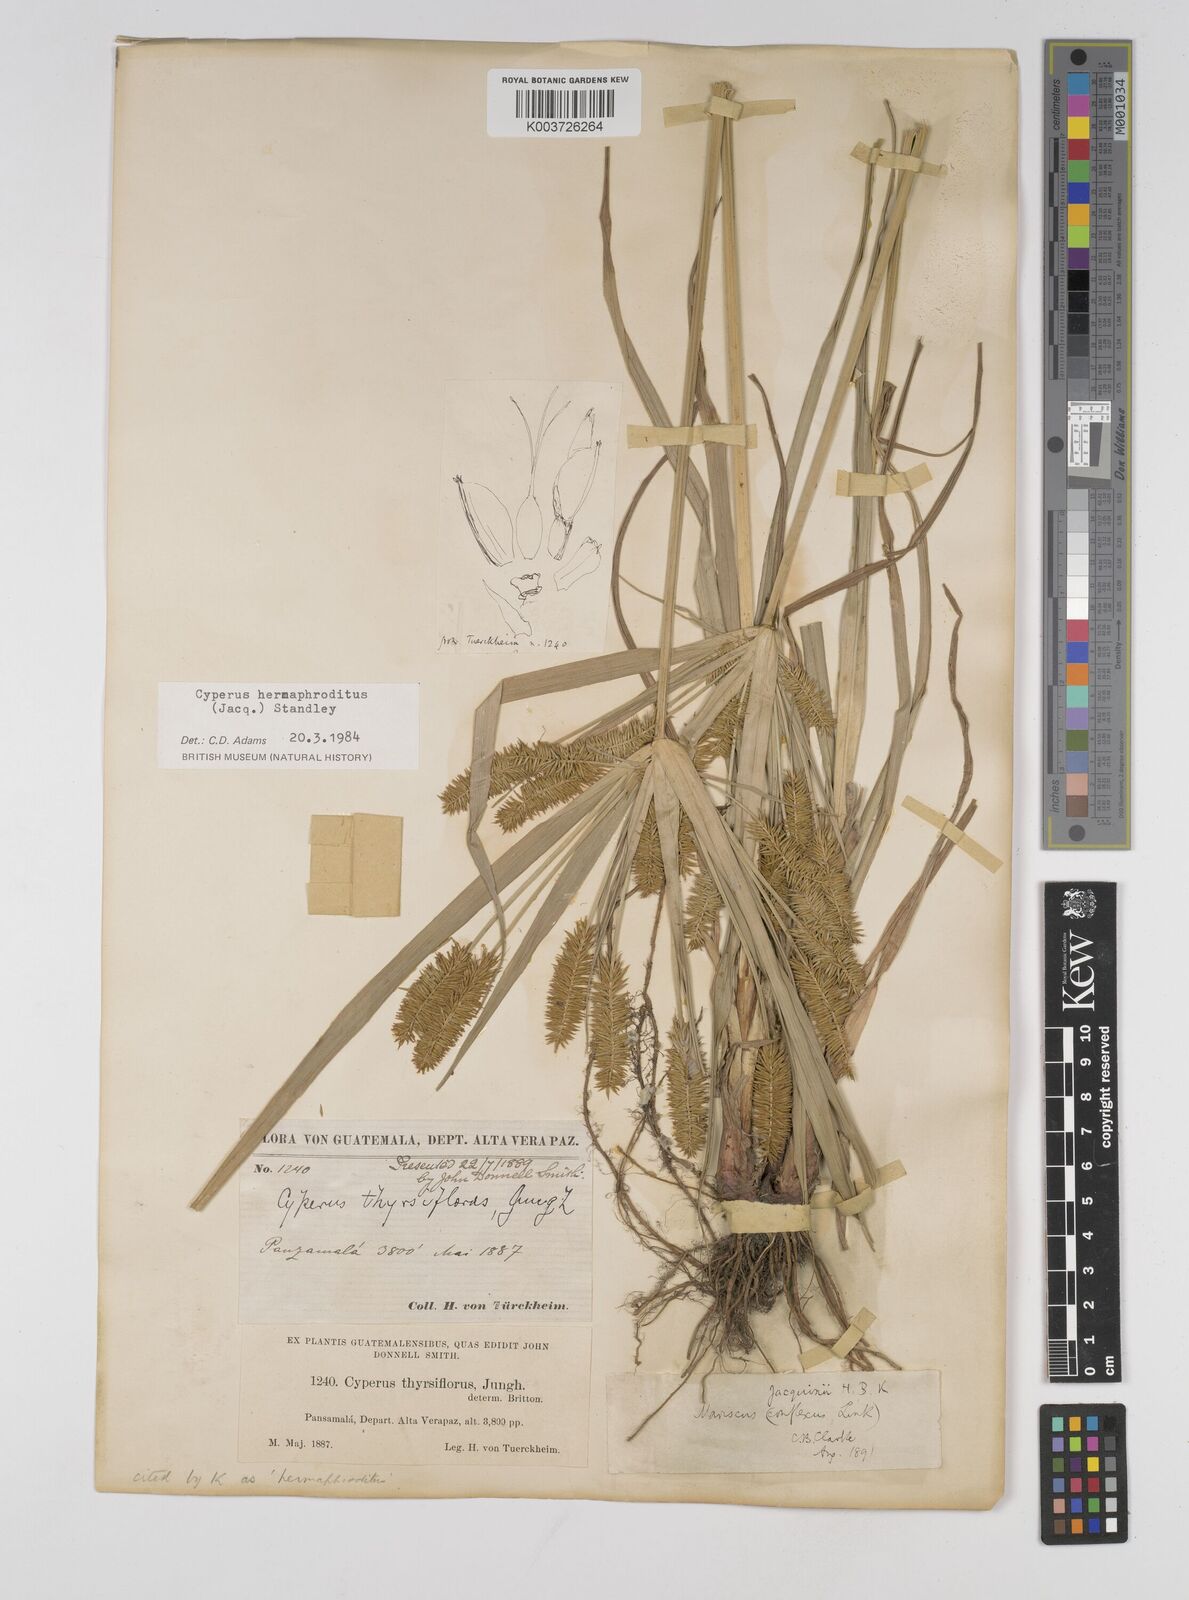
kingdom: Plantae
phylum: Tracheophyta
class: Liliopsida
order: Poales
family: Cyperaceae
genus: Cyperus
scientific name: Cyperus hermaphroditus
